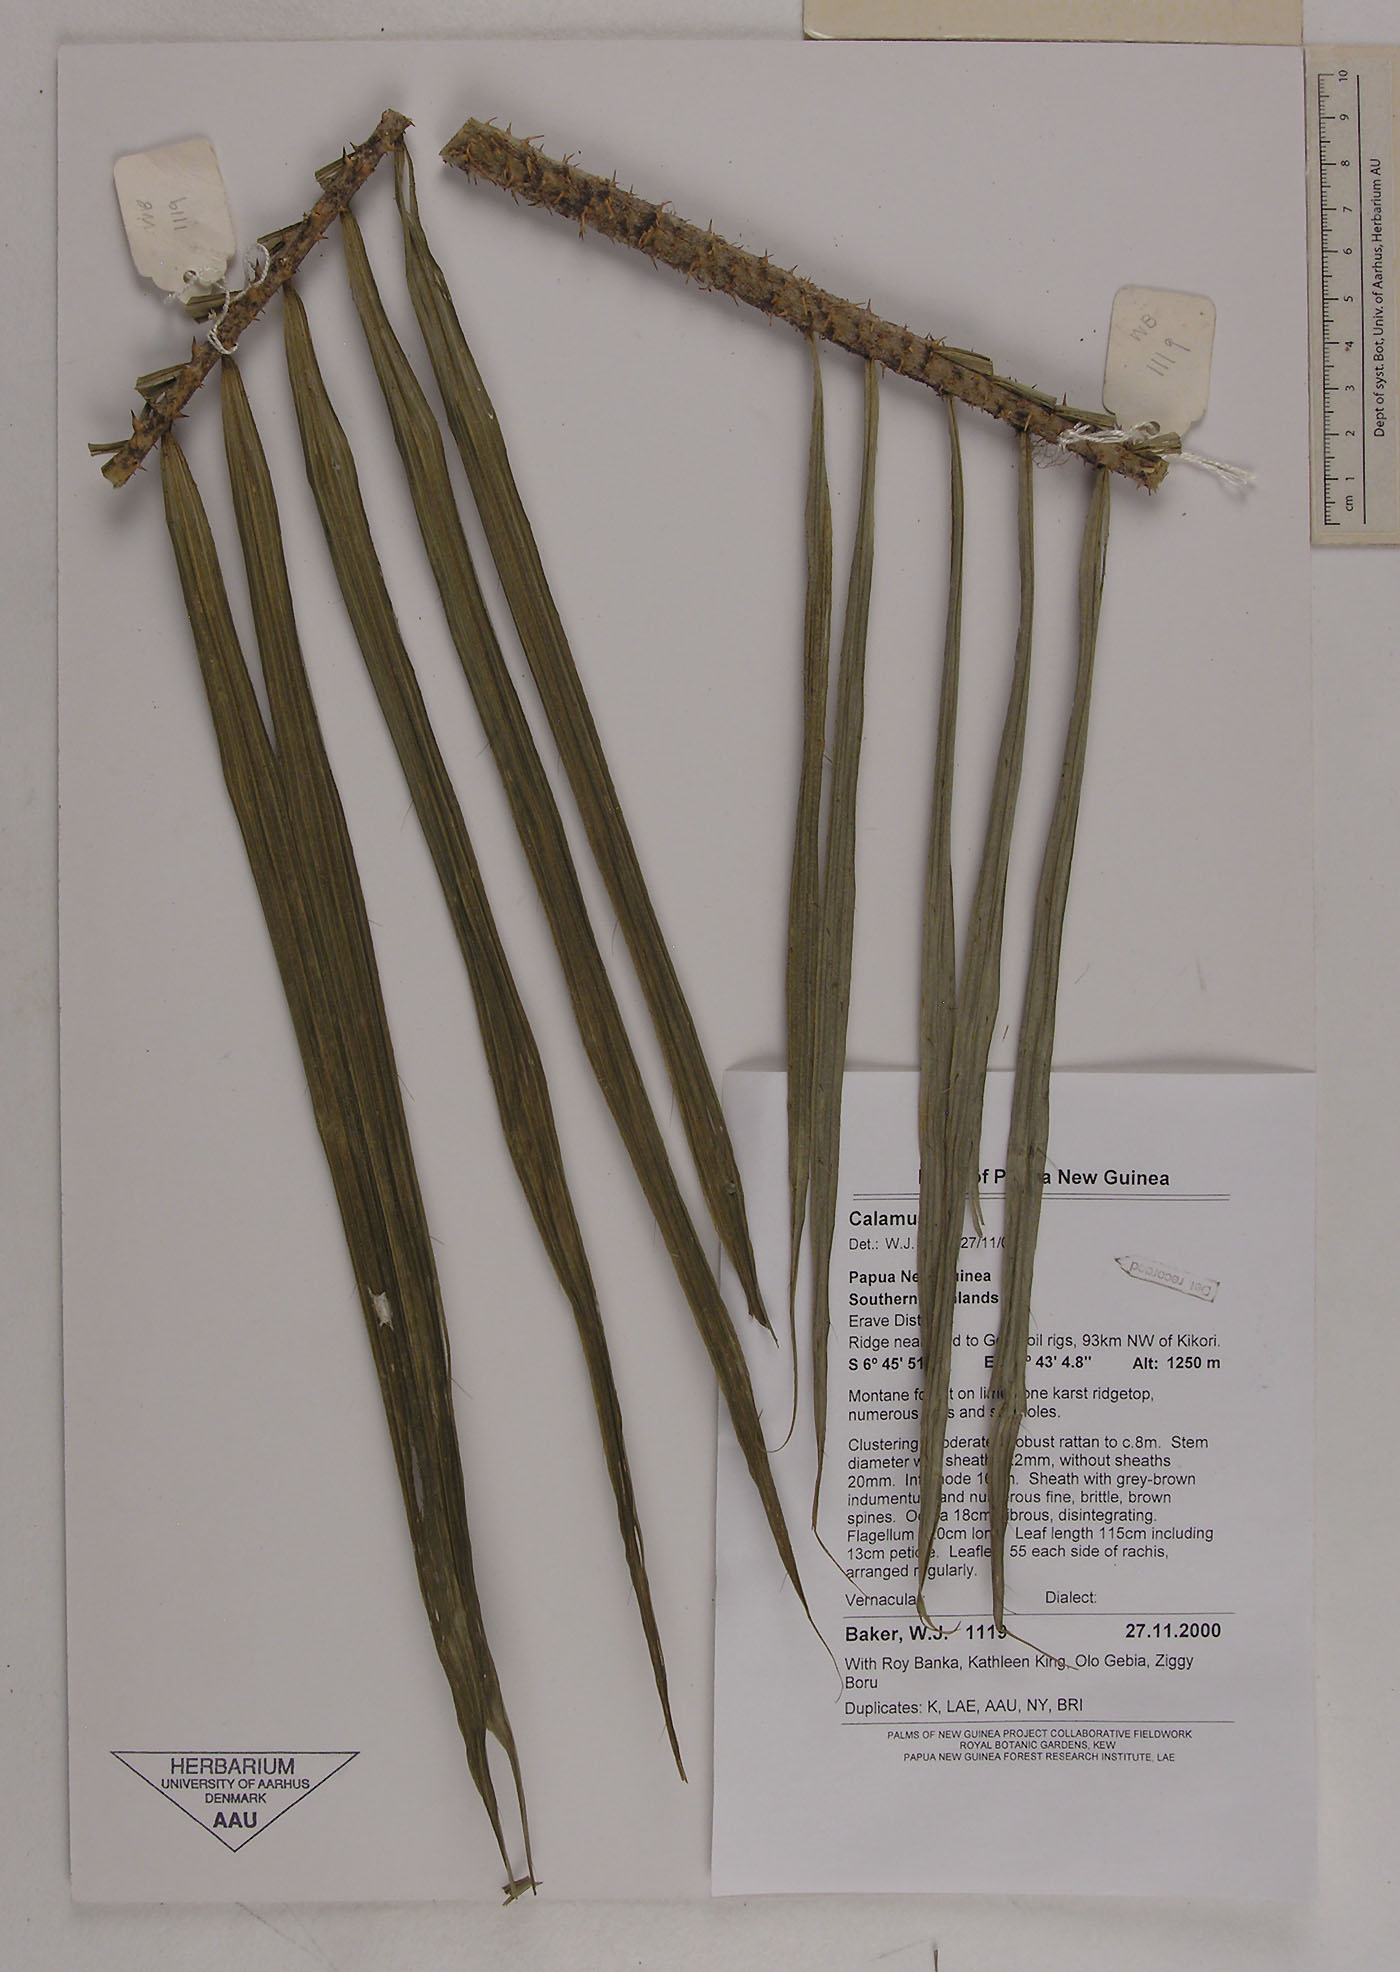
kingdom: Plantae
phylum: Tracheophyta
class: Liliopsida
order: Arecales
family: Arecaceae
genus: Calamus
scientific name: Calamus
